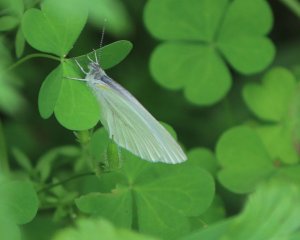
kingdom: Animalia
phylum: Arthropoda
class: Insecta
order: Lepidoptera
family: Pieridae
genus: Pieris
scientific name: Pieris oleracea
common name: Mustard White
